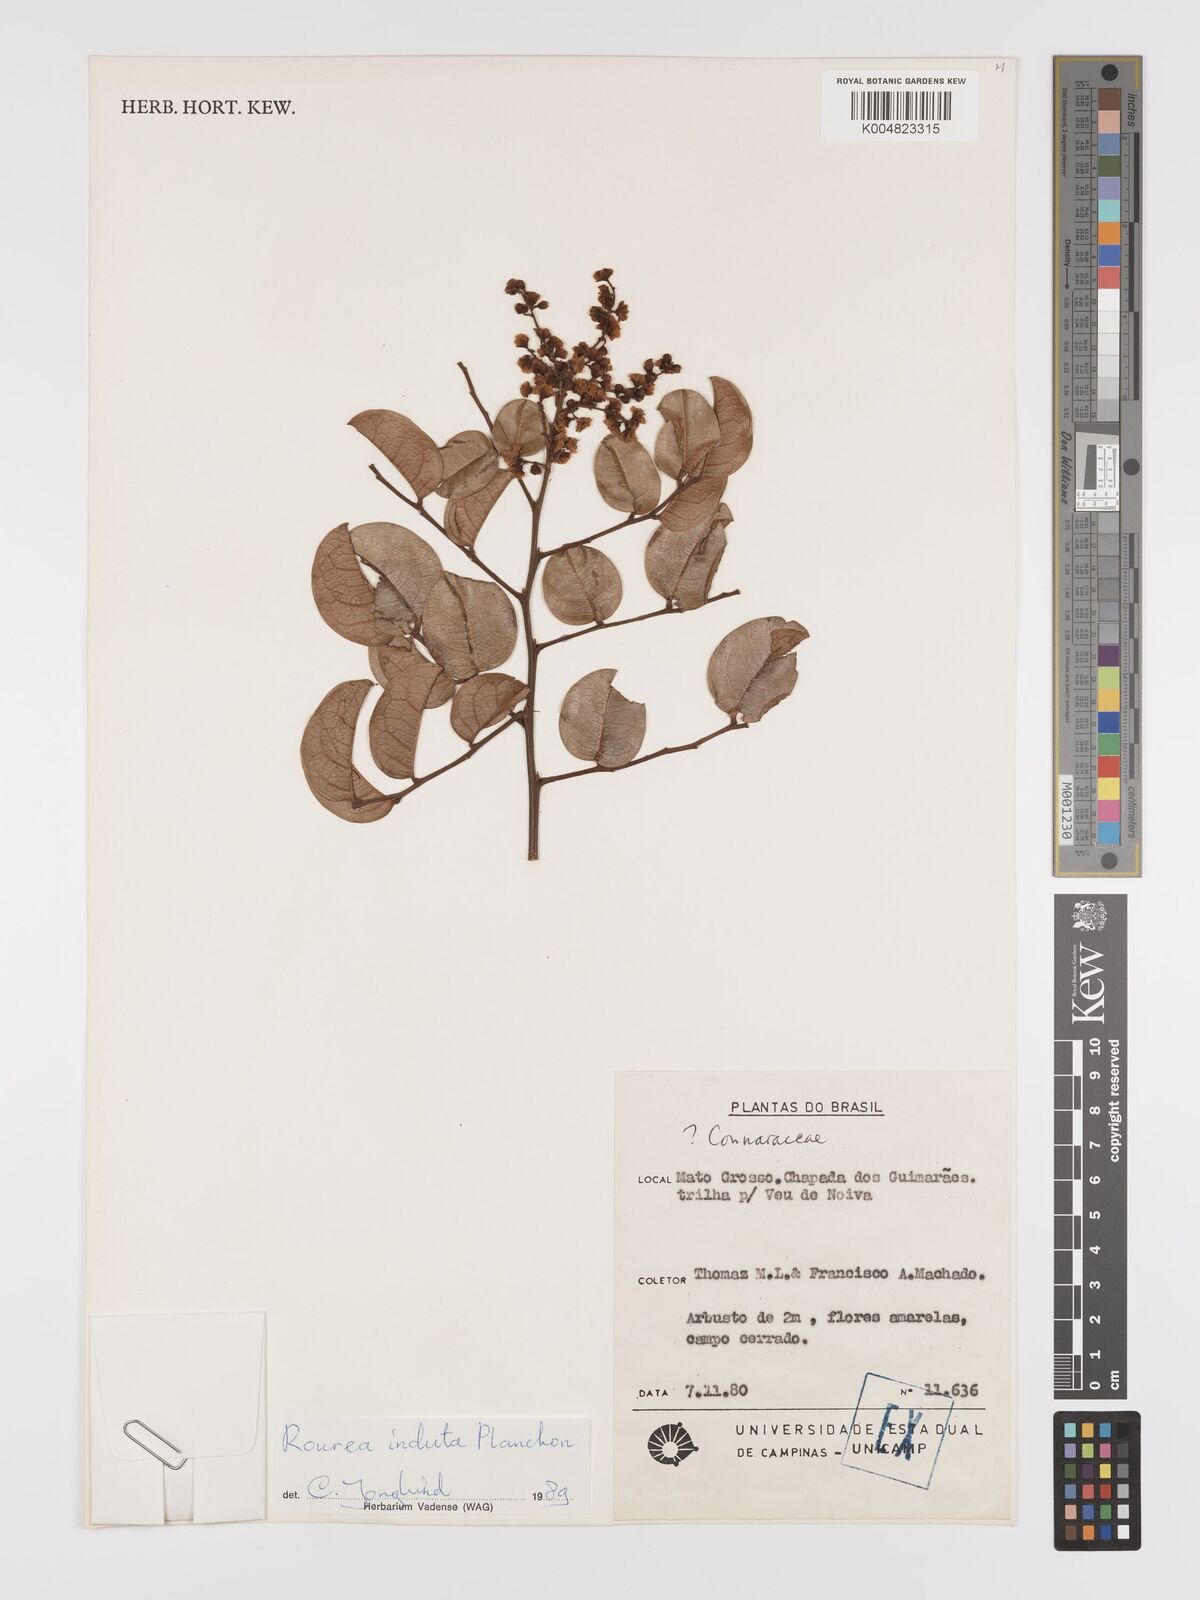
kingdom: Plantae
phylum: Tracheophyta
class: Magnoliopsida
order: Oxalidales
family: Connaraceae
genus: Rourea
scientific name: Rourea induta
